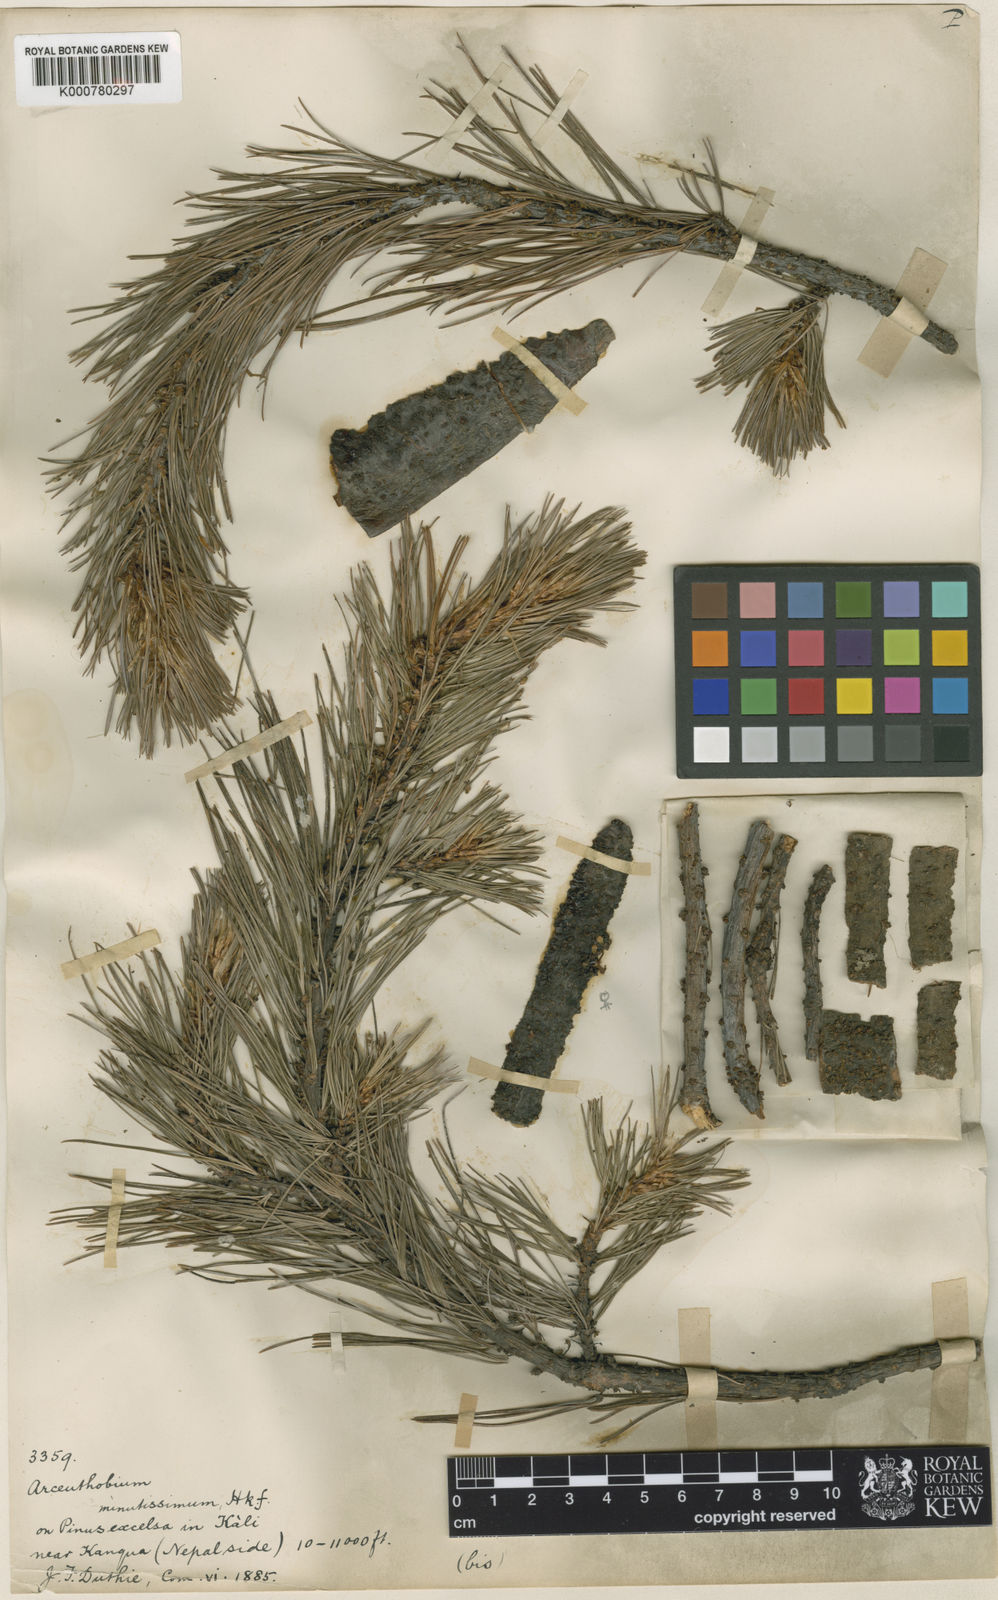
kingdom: Plantae
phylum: Tracheophyta
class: Magnoliopsida
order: Santalales
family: Viscaceae
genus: Arceuthobium
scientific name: Arceuthobium minutissimum
